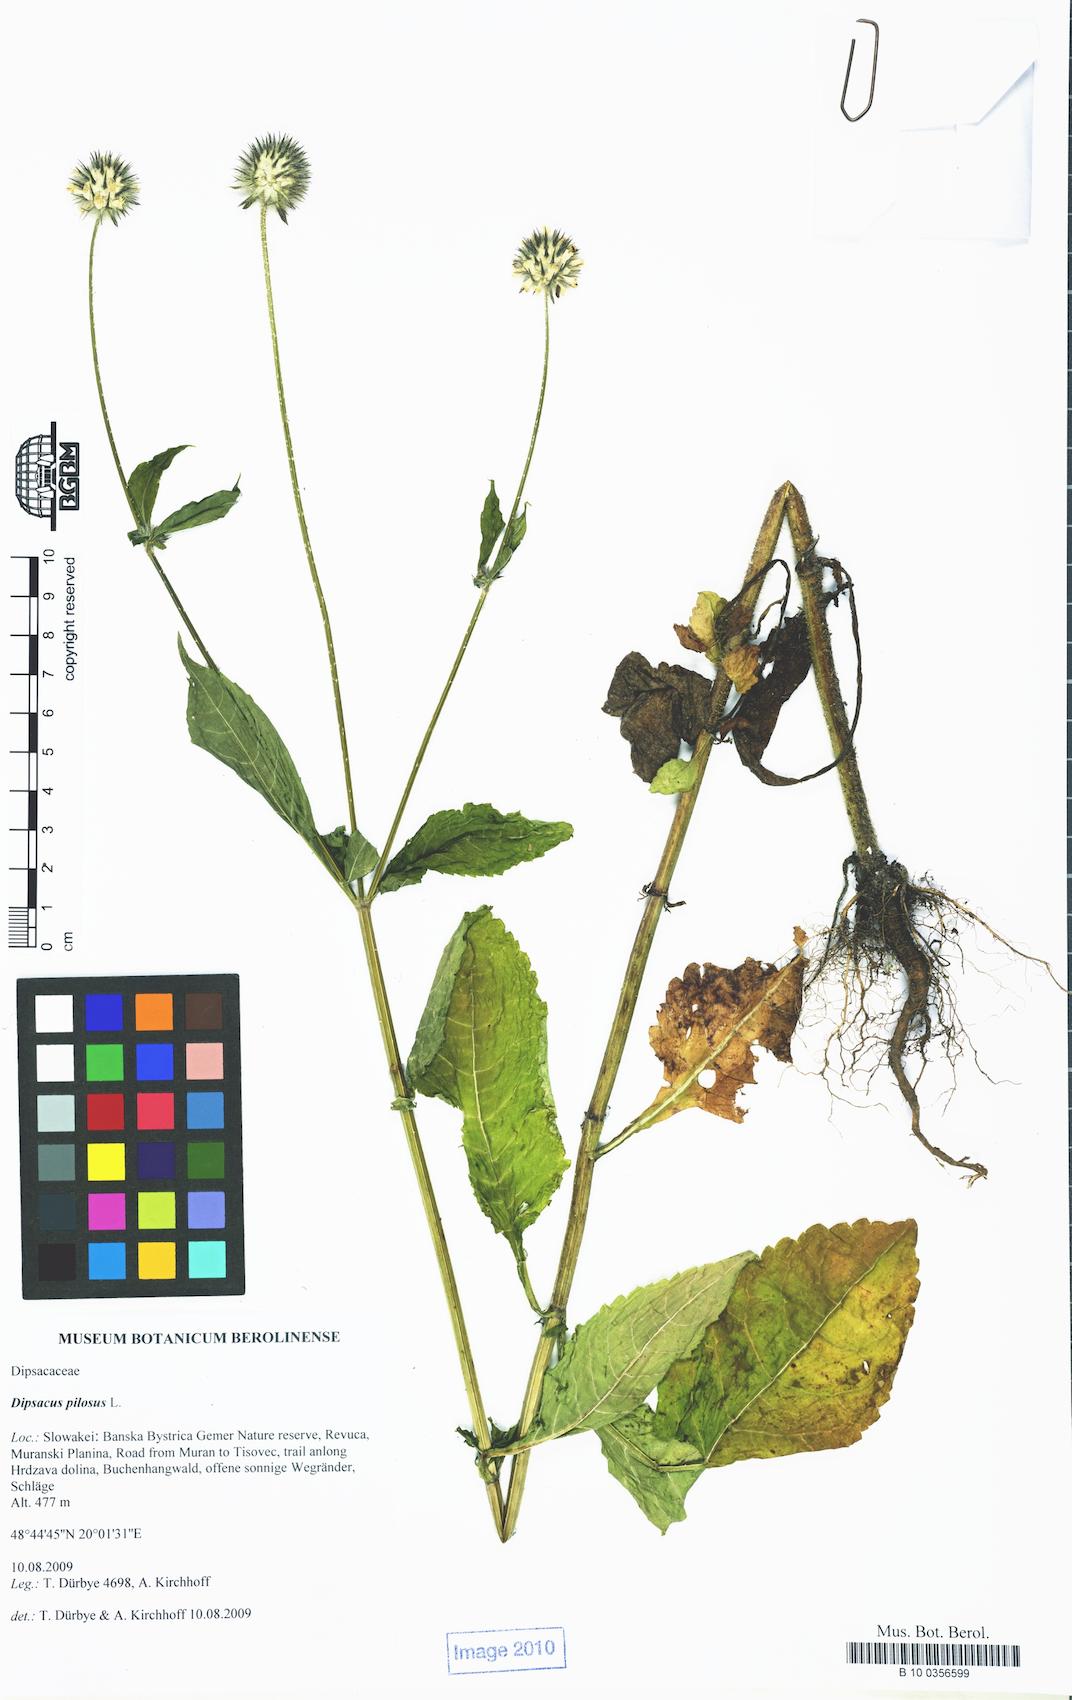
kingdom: Plantae
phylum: Tracheophyta
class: Magnoliopsida
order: Dipsacales
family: Caprifoliaceae
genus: Dipsacus
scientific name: Dipsacus pilosus
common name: Small teasel
